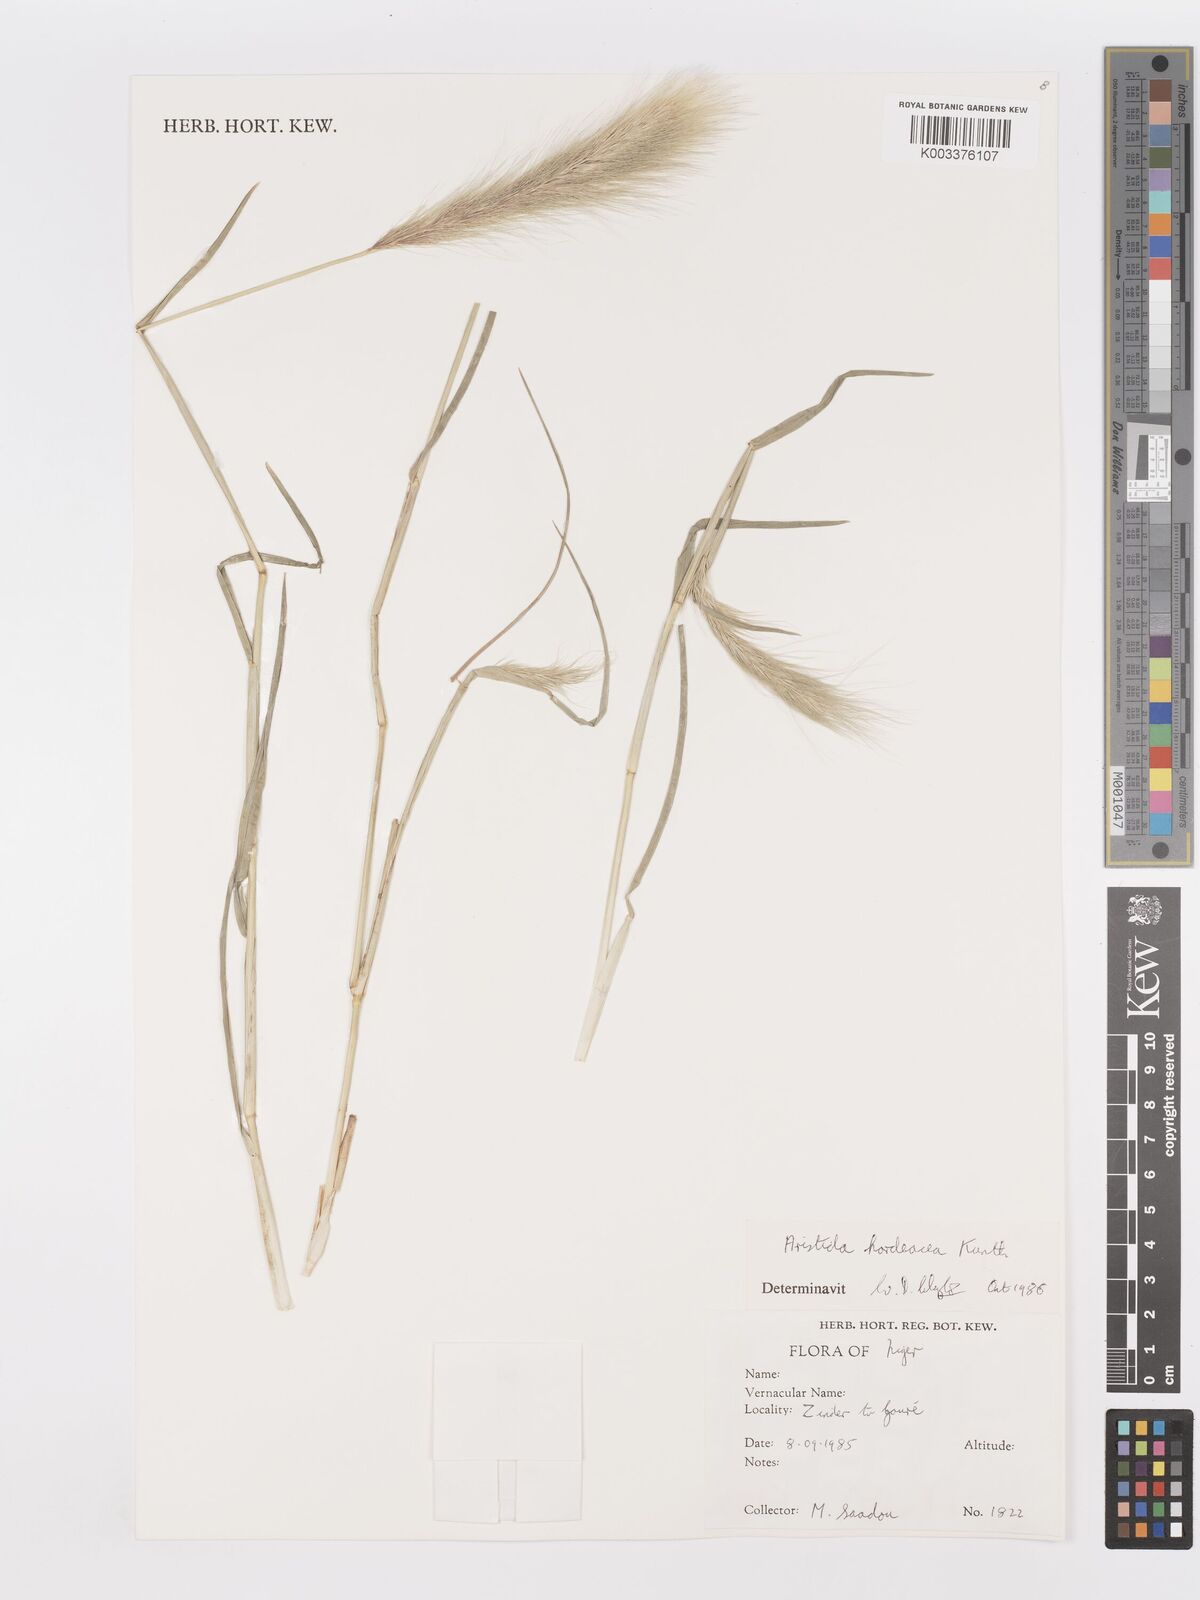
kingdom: Plantae
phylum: Tracheophyta
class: Liliopsida
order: Poales
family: Poaceae
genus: Aristida
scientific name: Aristida hordeacea
